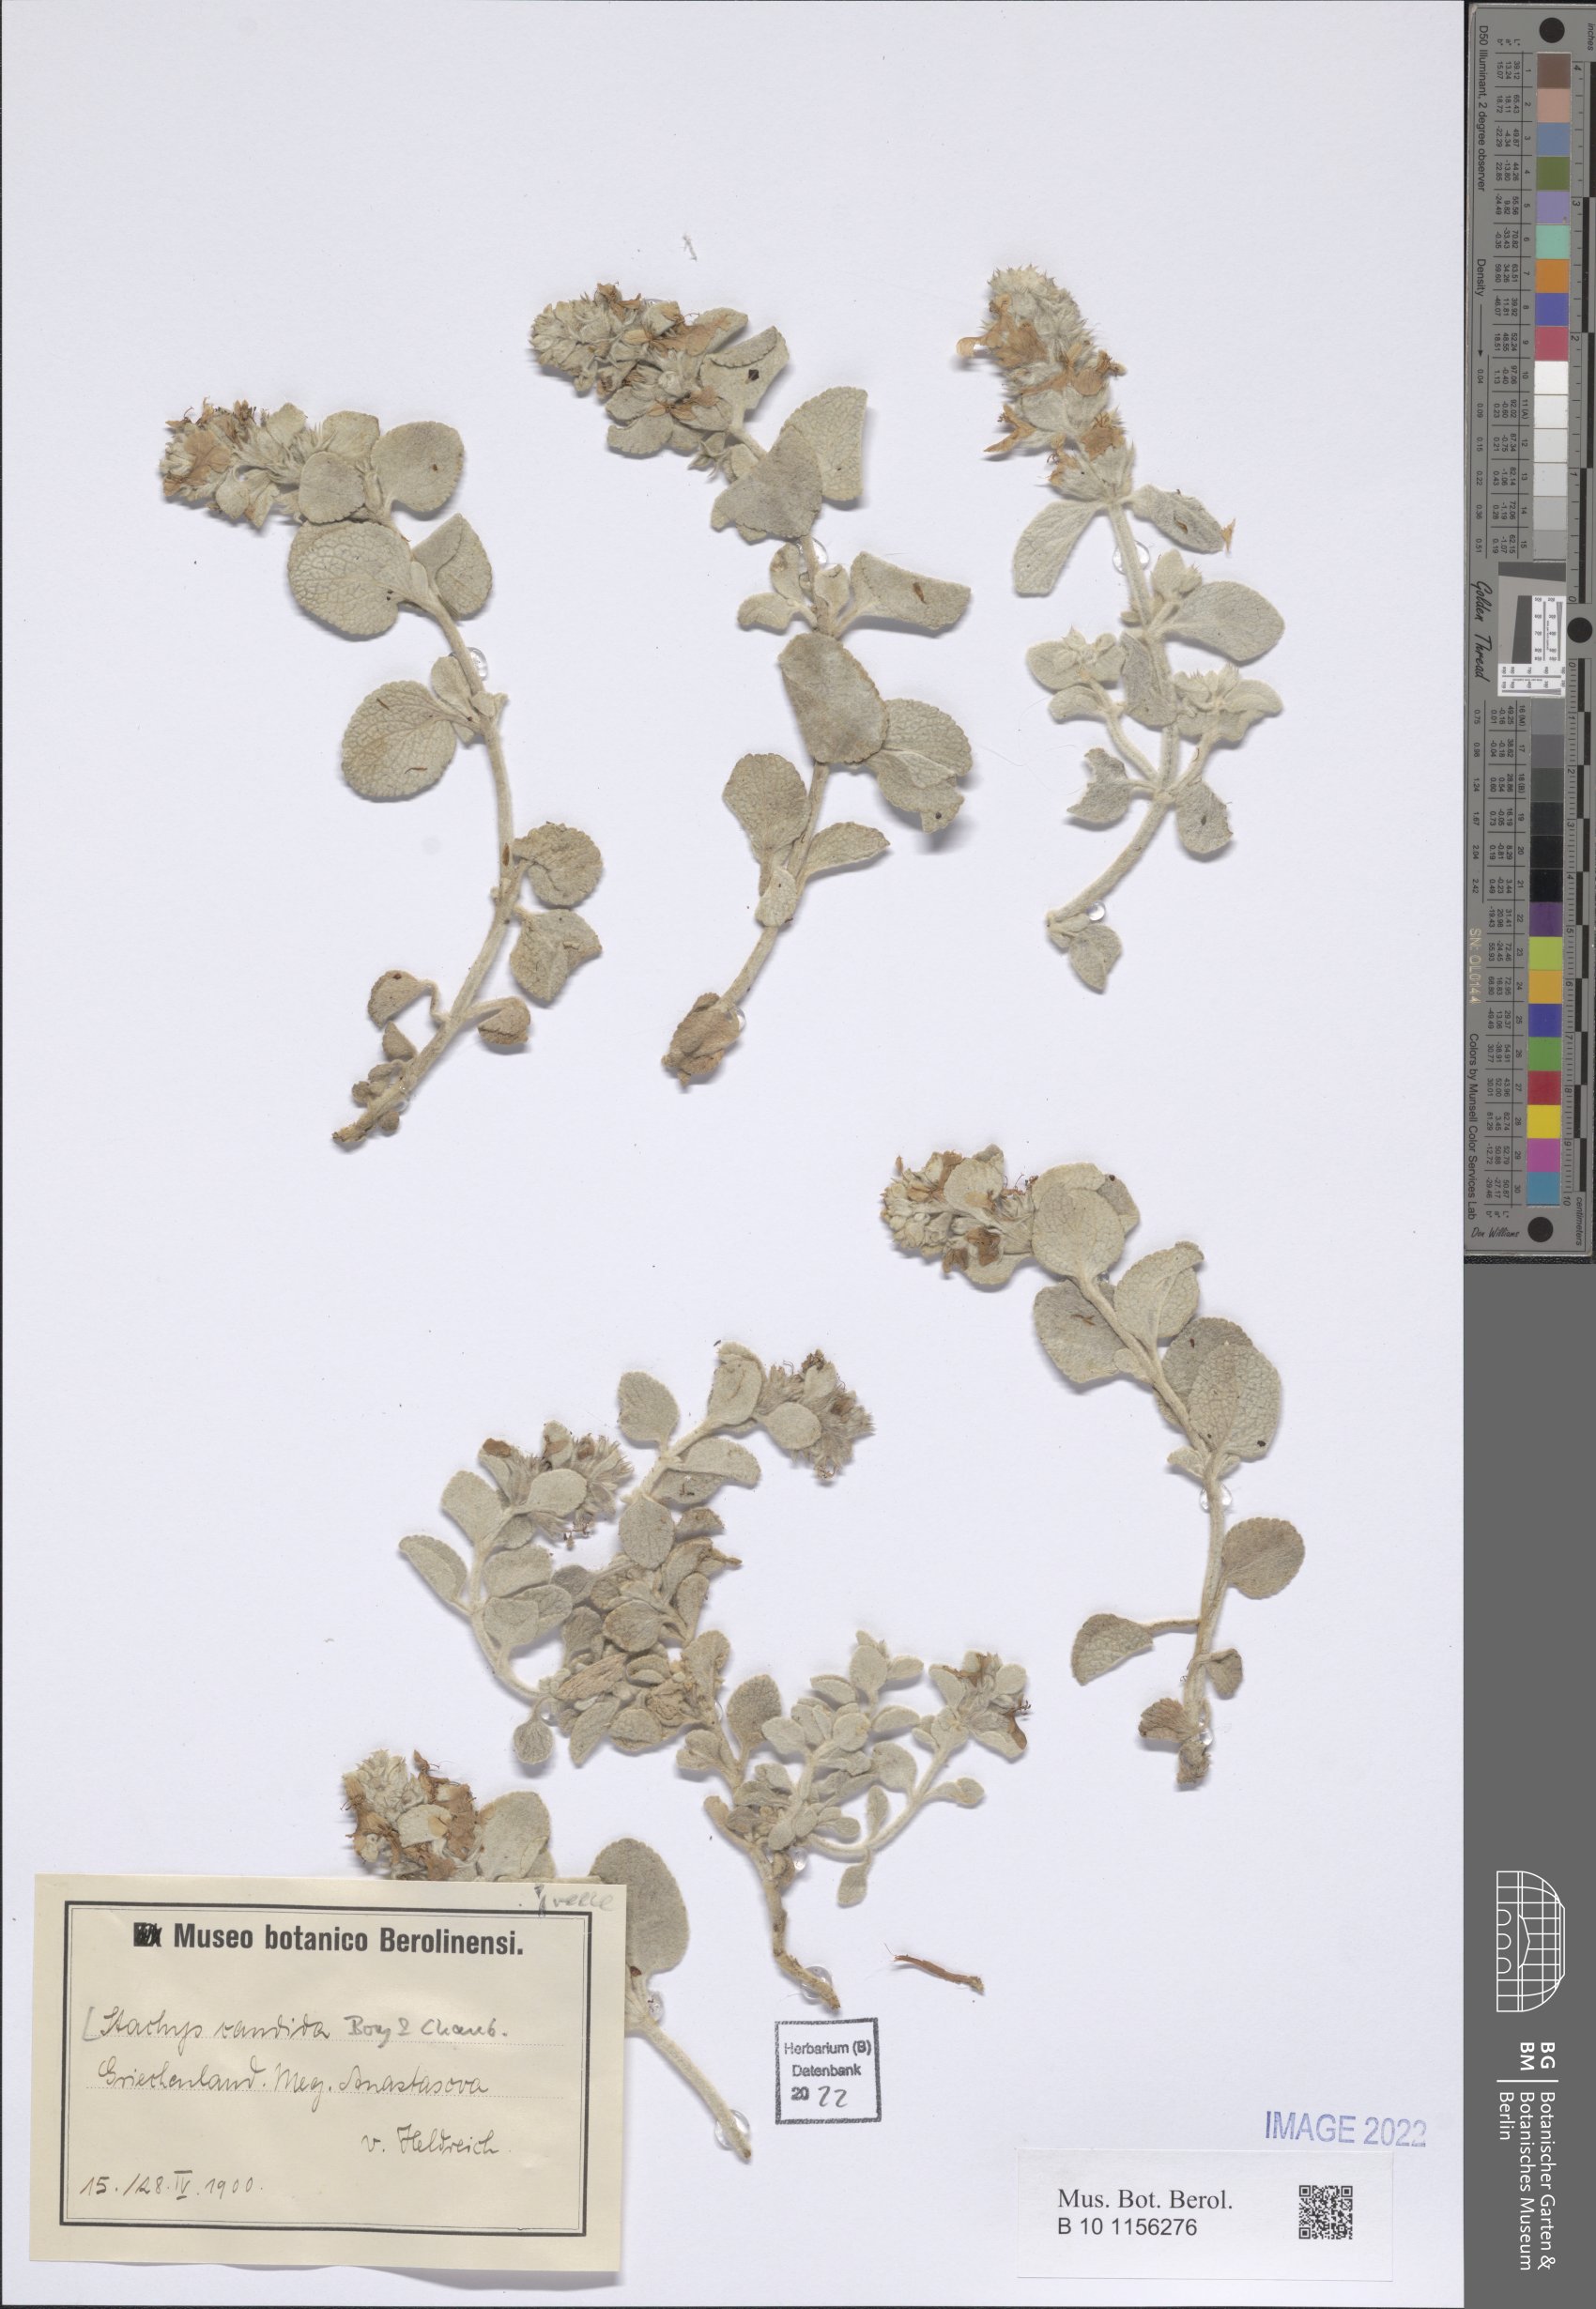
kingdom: Plantae
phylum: Tracheophyta
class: Magnoliopsida
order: Lamiales
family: Lamiaceae
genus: Stachys
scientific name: Stachys candida
